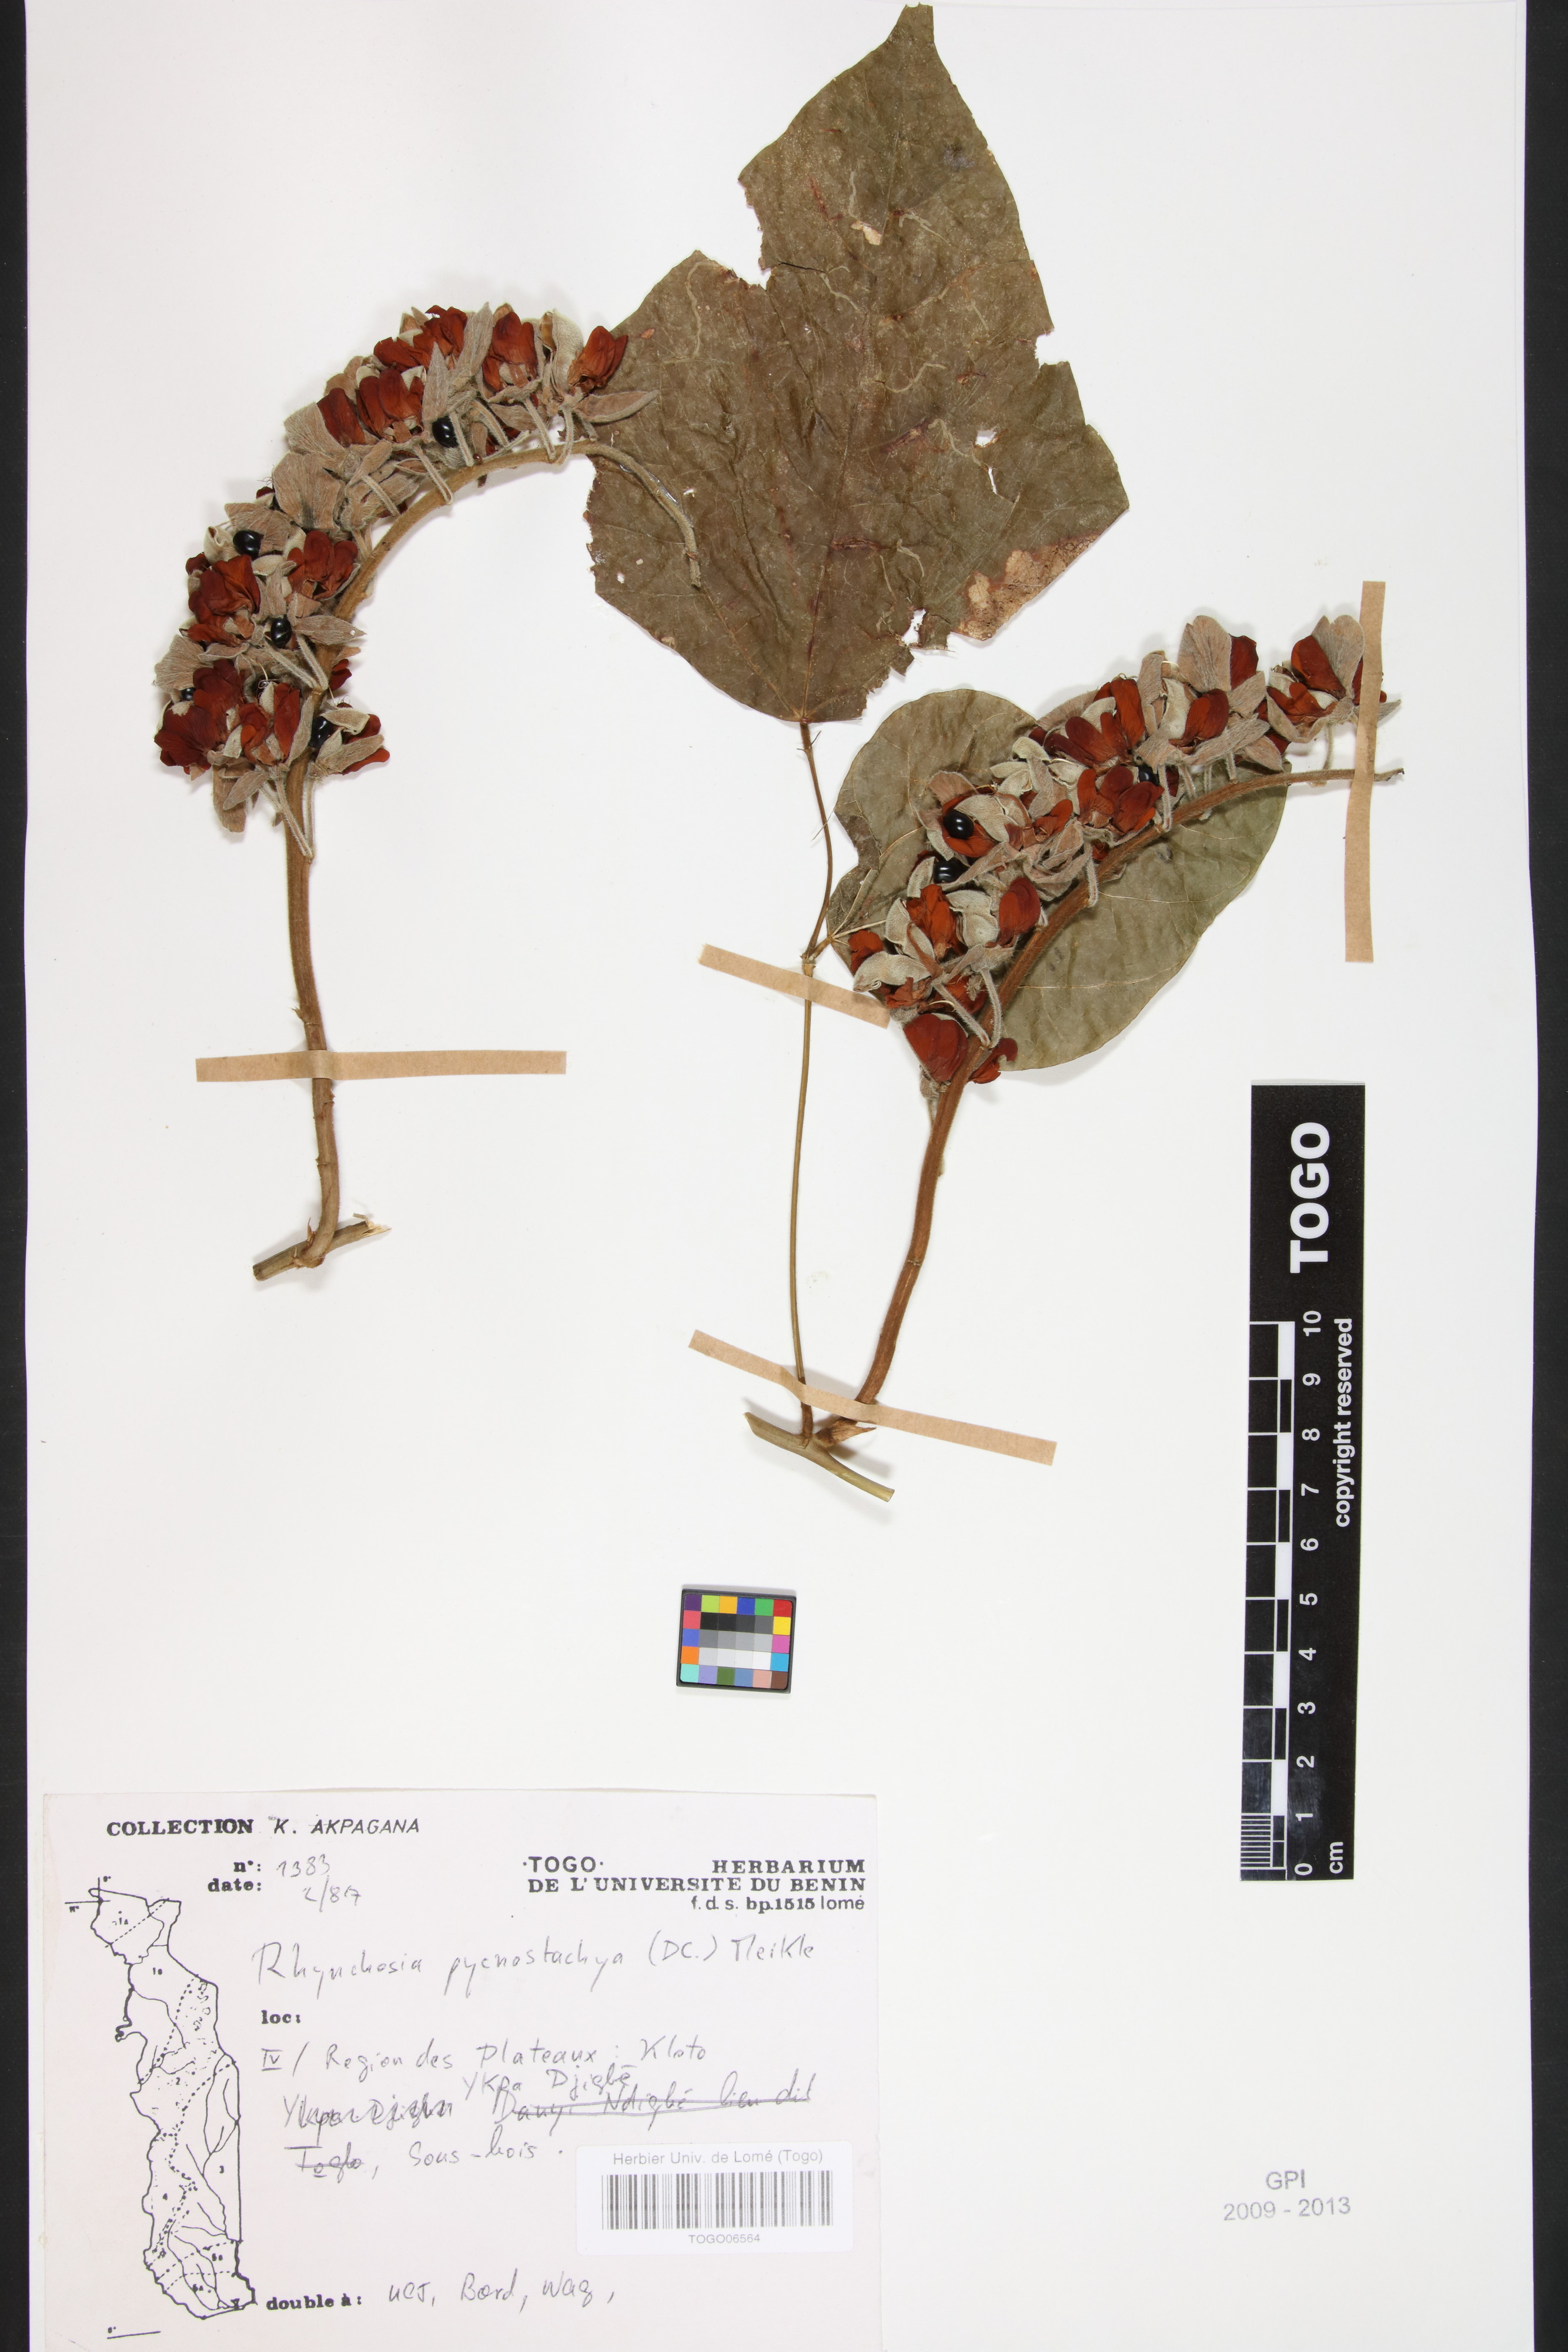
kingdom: Plantae
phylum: Tracheophyta
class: Magnoliopsida
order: Fabales
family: Fabaceae
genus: Rhynchosia
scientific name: Rhynchosia pycnostachya
